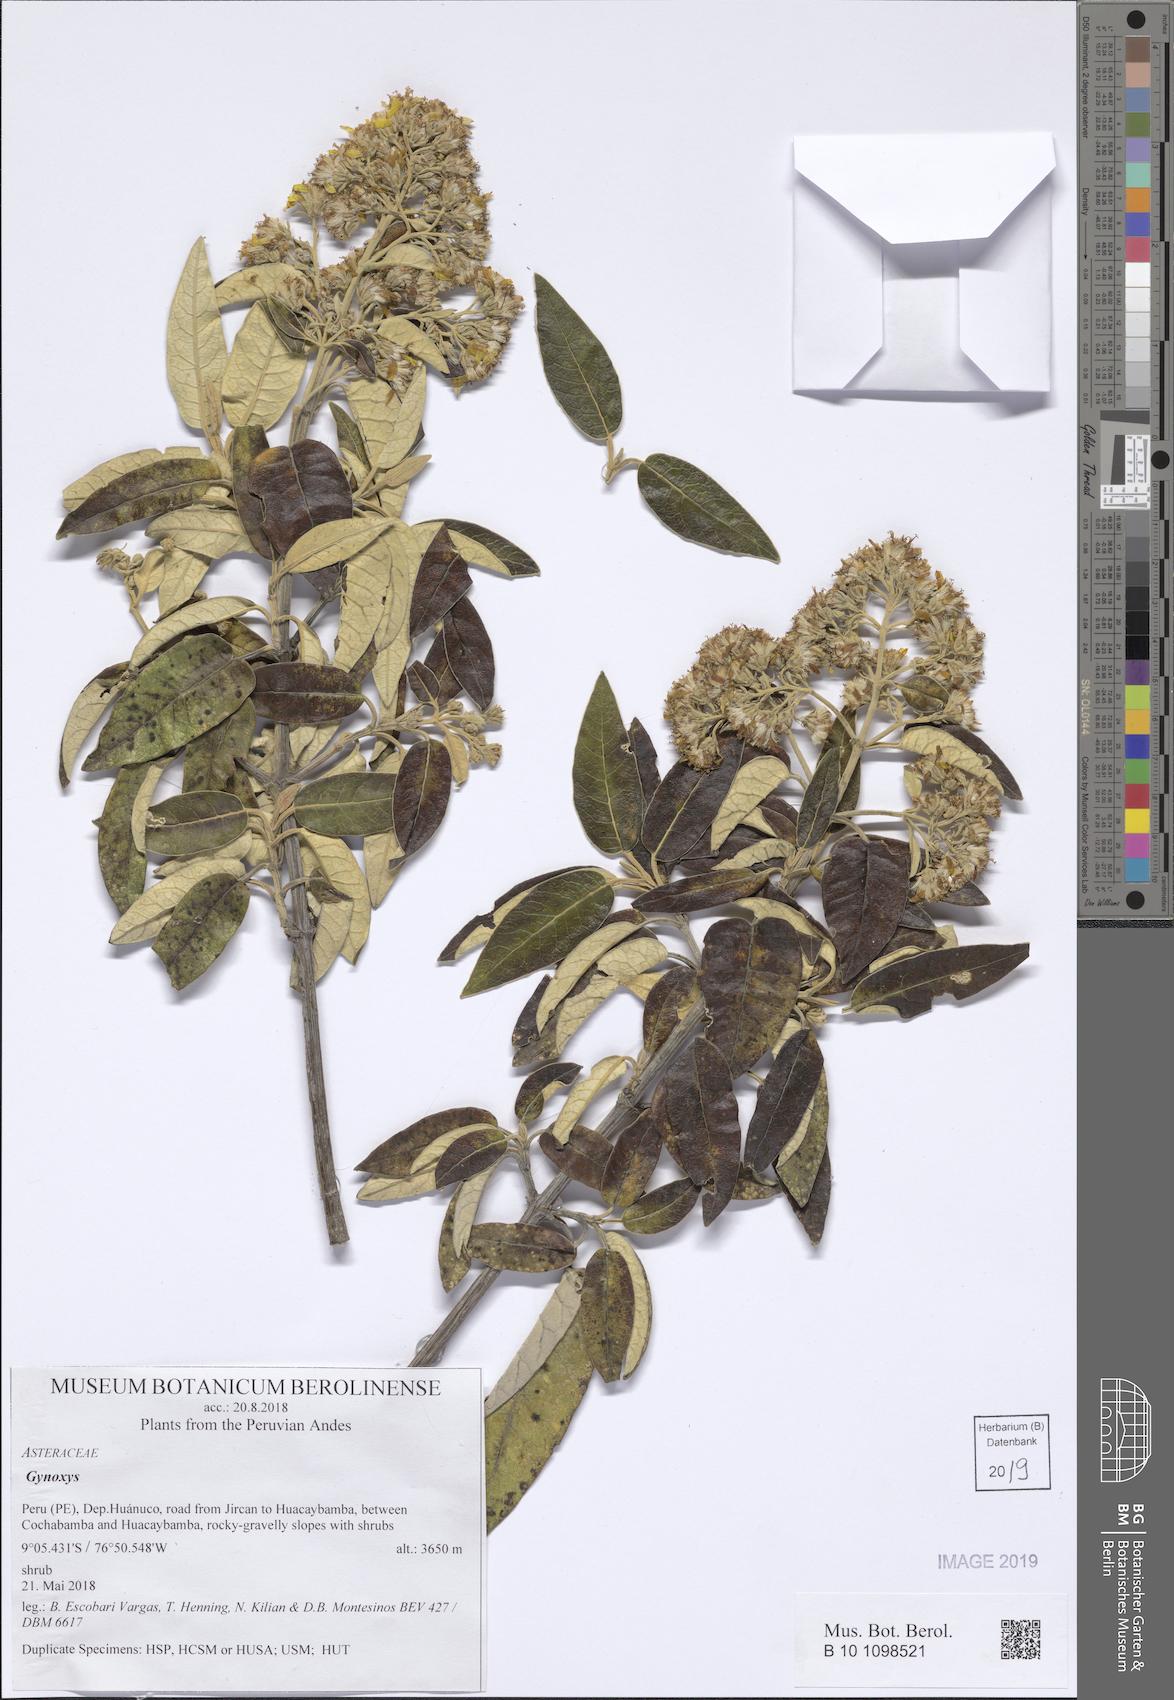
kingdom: Plantae
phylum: Tracheophyta
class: Magnoliopsida
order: Asterales
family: Asteraceae
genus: Gynoxys
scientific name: Gynoxys
